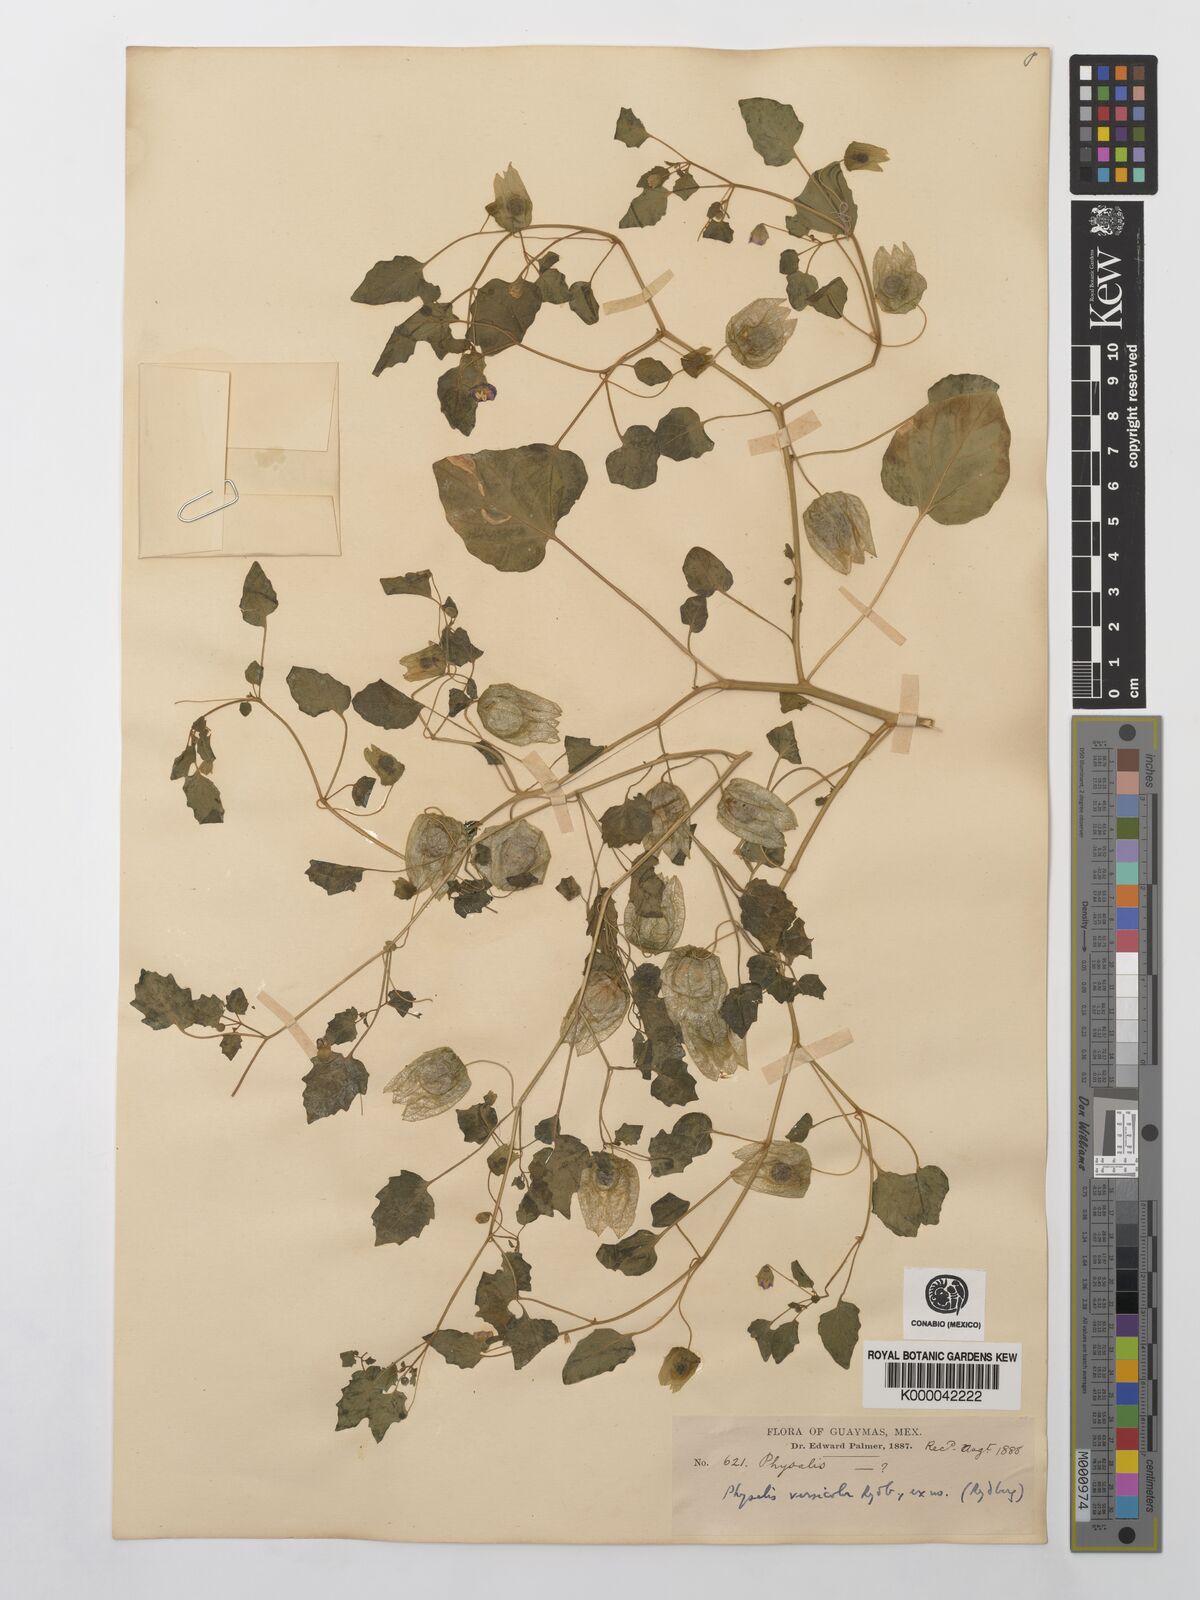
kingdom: Plantae
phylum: Tracheophyta
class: Magnoliopsida
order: Solanales
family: Solanaceae
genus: Physalis
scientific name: Physalis crassifolia
